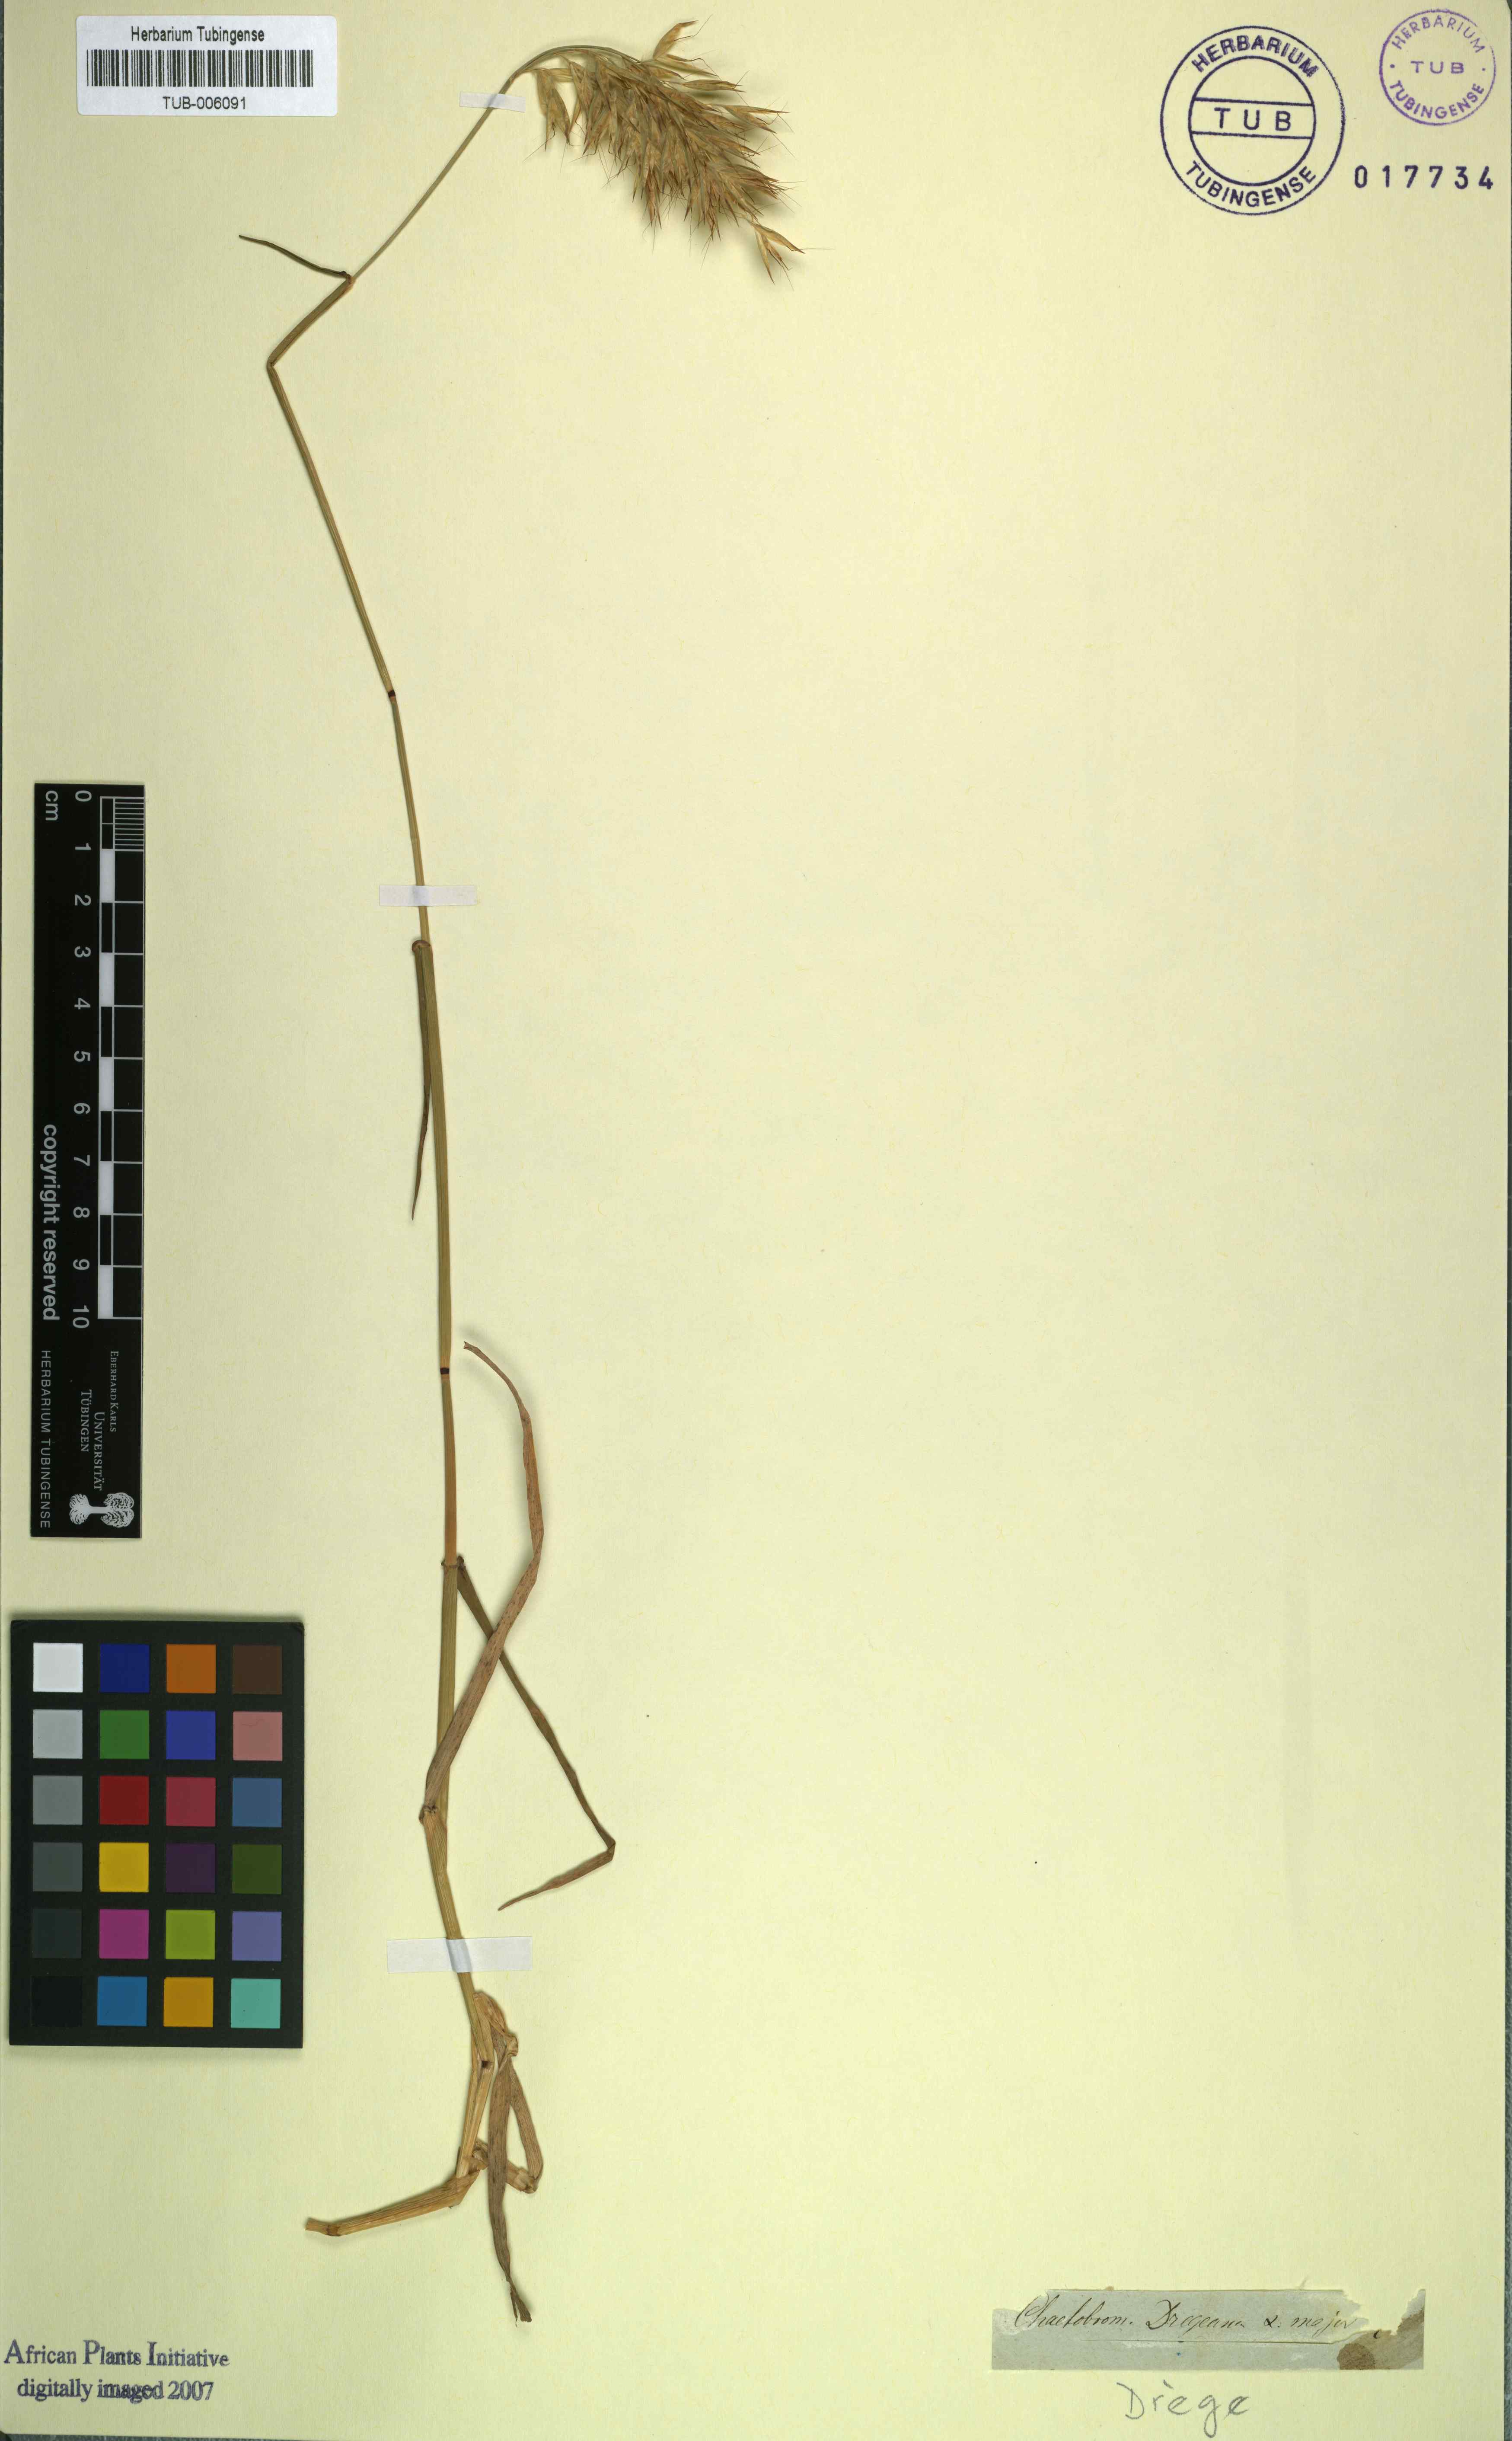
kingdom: Plantae
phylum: Tracheophyta
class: Liliopsida
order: Poales
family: Poaceae
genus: Chaetobromus
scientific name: Chaetobromus involucratus
